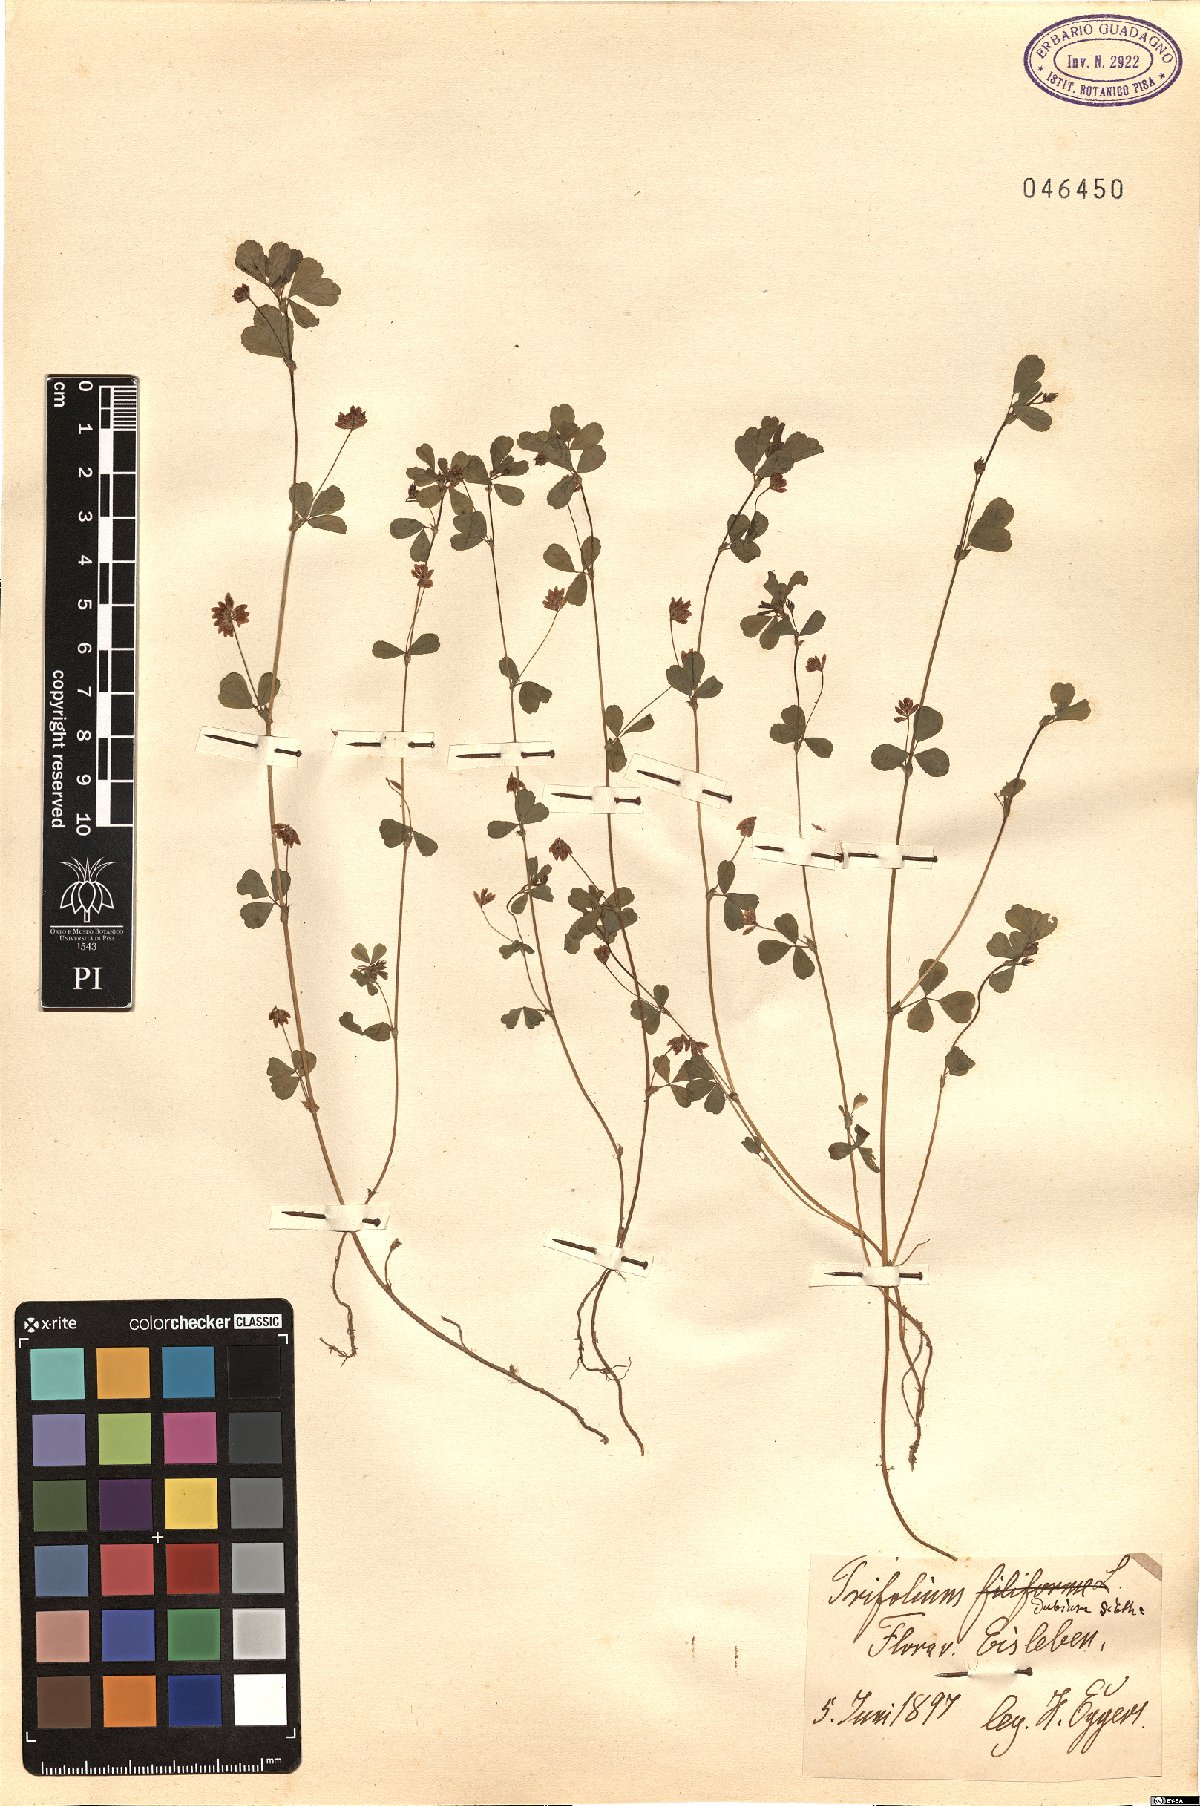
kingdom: Plantae
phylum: Tracheophyta
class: Magnoliopsida
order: Fabales
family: Fabaceae
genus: Trifolium
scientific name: Trifolium dubium
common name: Suckling clover
